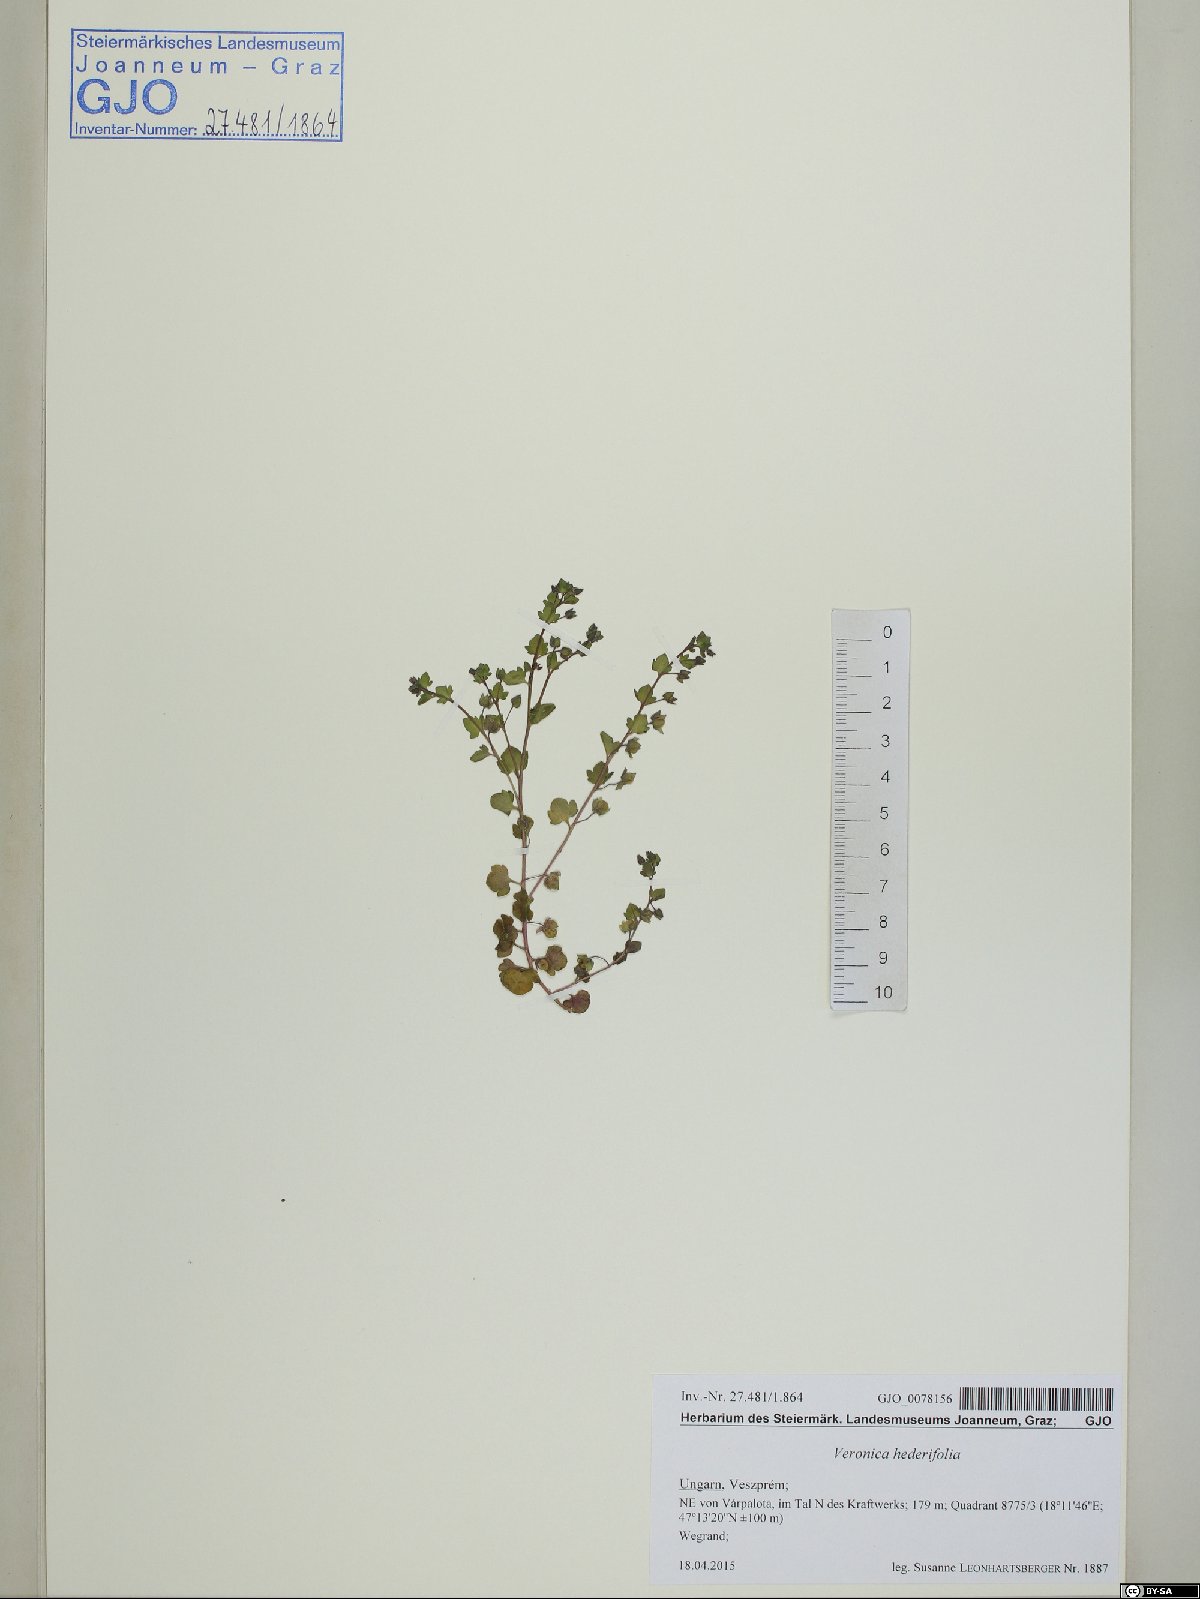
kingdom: Plantae
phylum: Tracheophyta
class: Magnoliopsida
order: Lamiales
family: Plantaginaceae
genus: Veronica
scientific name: Veronica hederifolia
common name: Ivy-leaved speedwell
